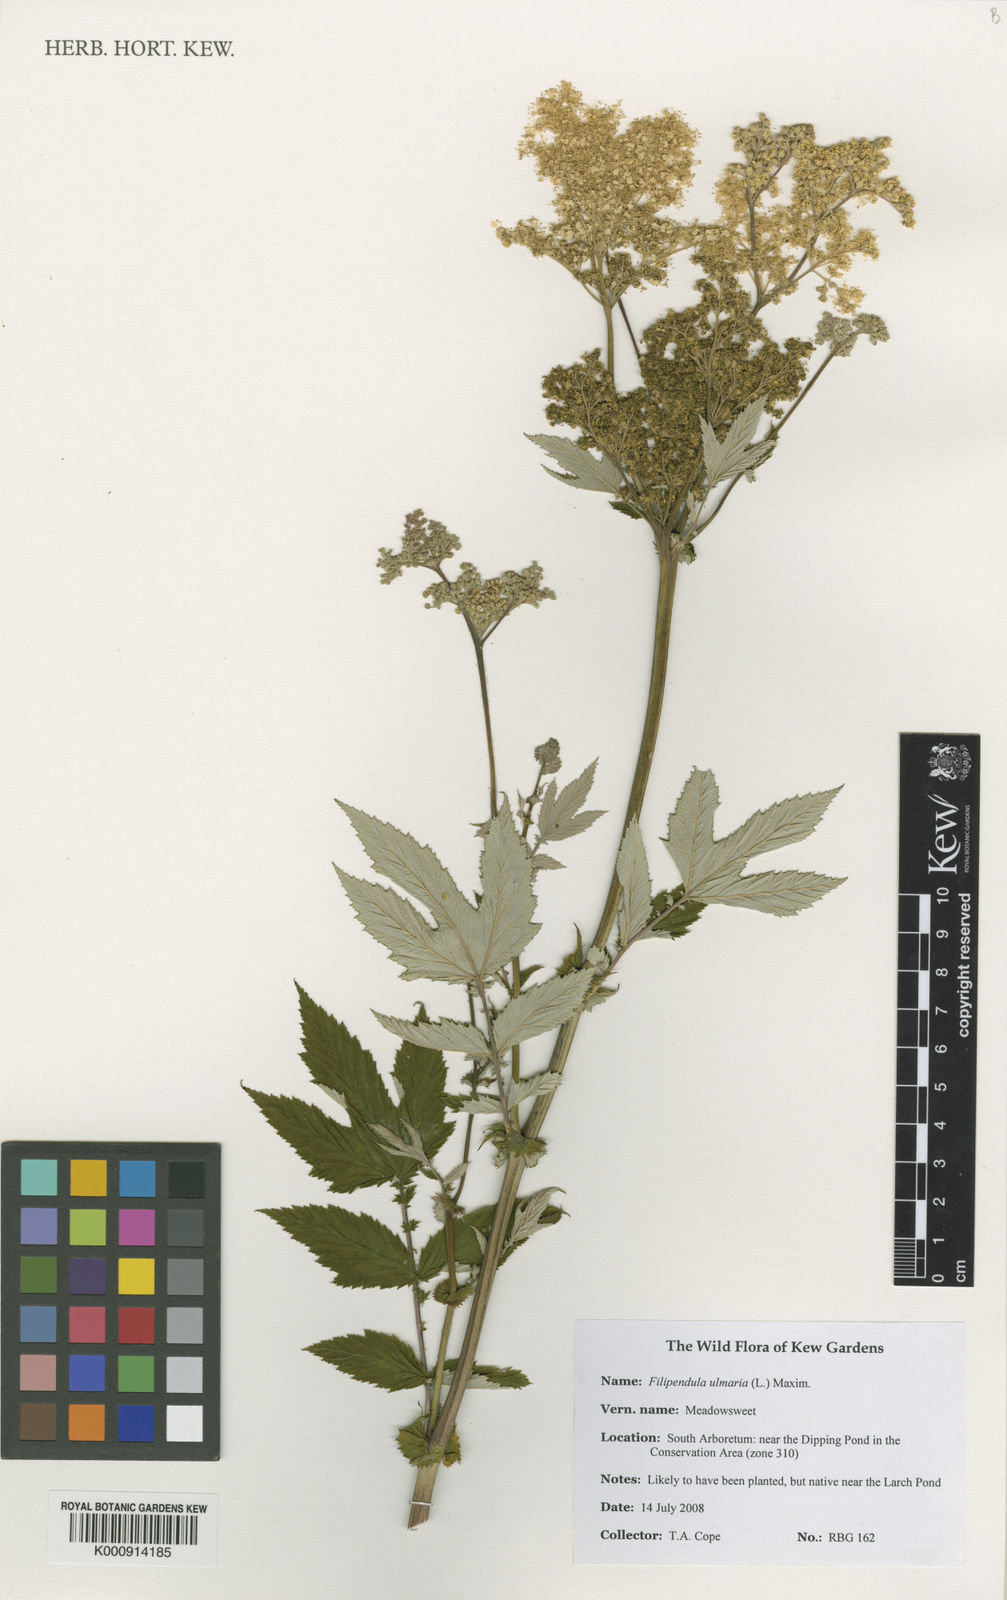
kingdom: Plantae
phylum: Tracheophyta
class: Magnoliopsida
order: Rosales
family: Rosaceae
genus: Filipendula
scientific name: Filipendula ulmaria
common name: Meadowsweet
